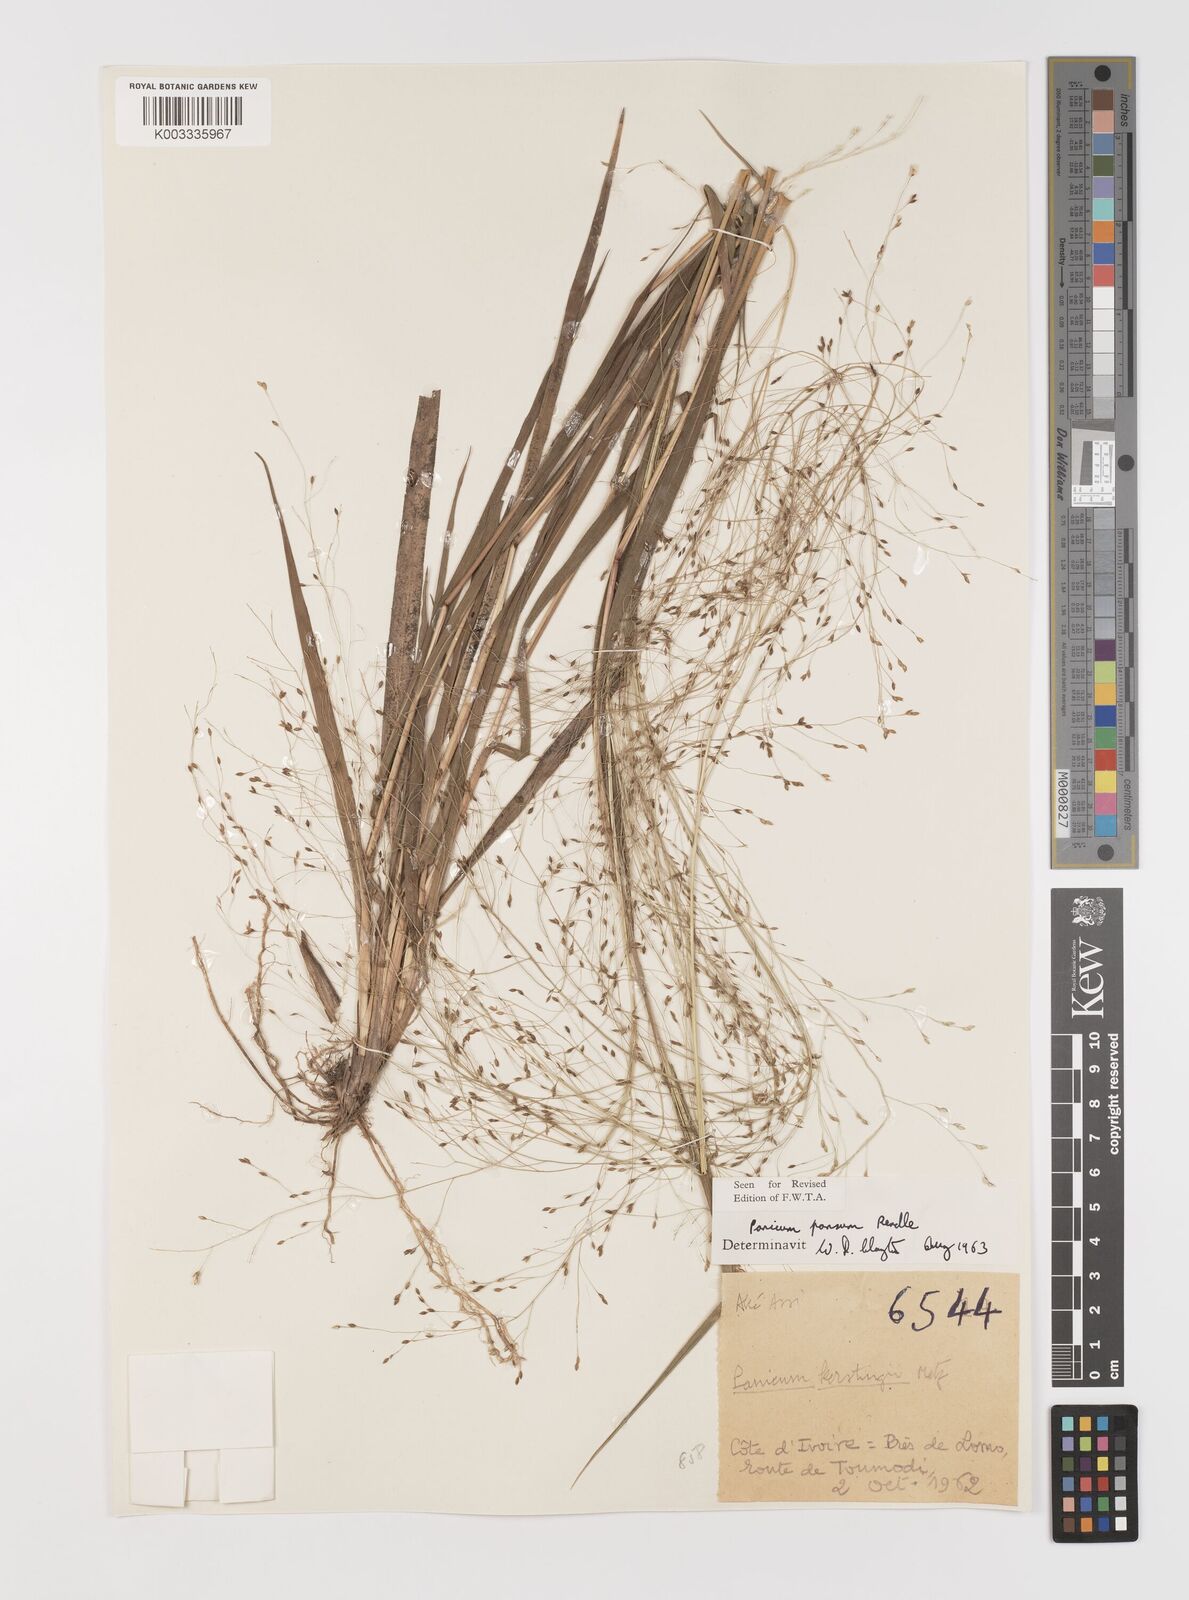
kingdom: Plantae
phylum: Tracheophyta
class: Liliopsida
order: Poales
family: Poaceae
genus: Panicum
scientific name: Panicum pansum
